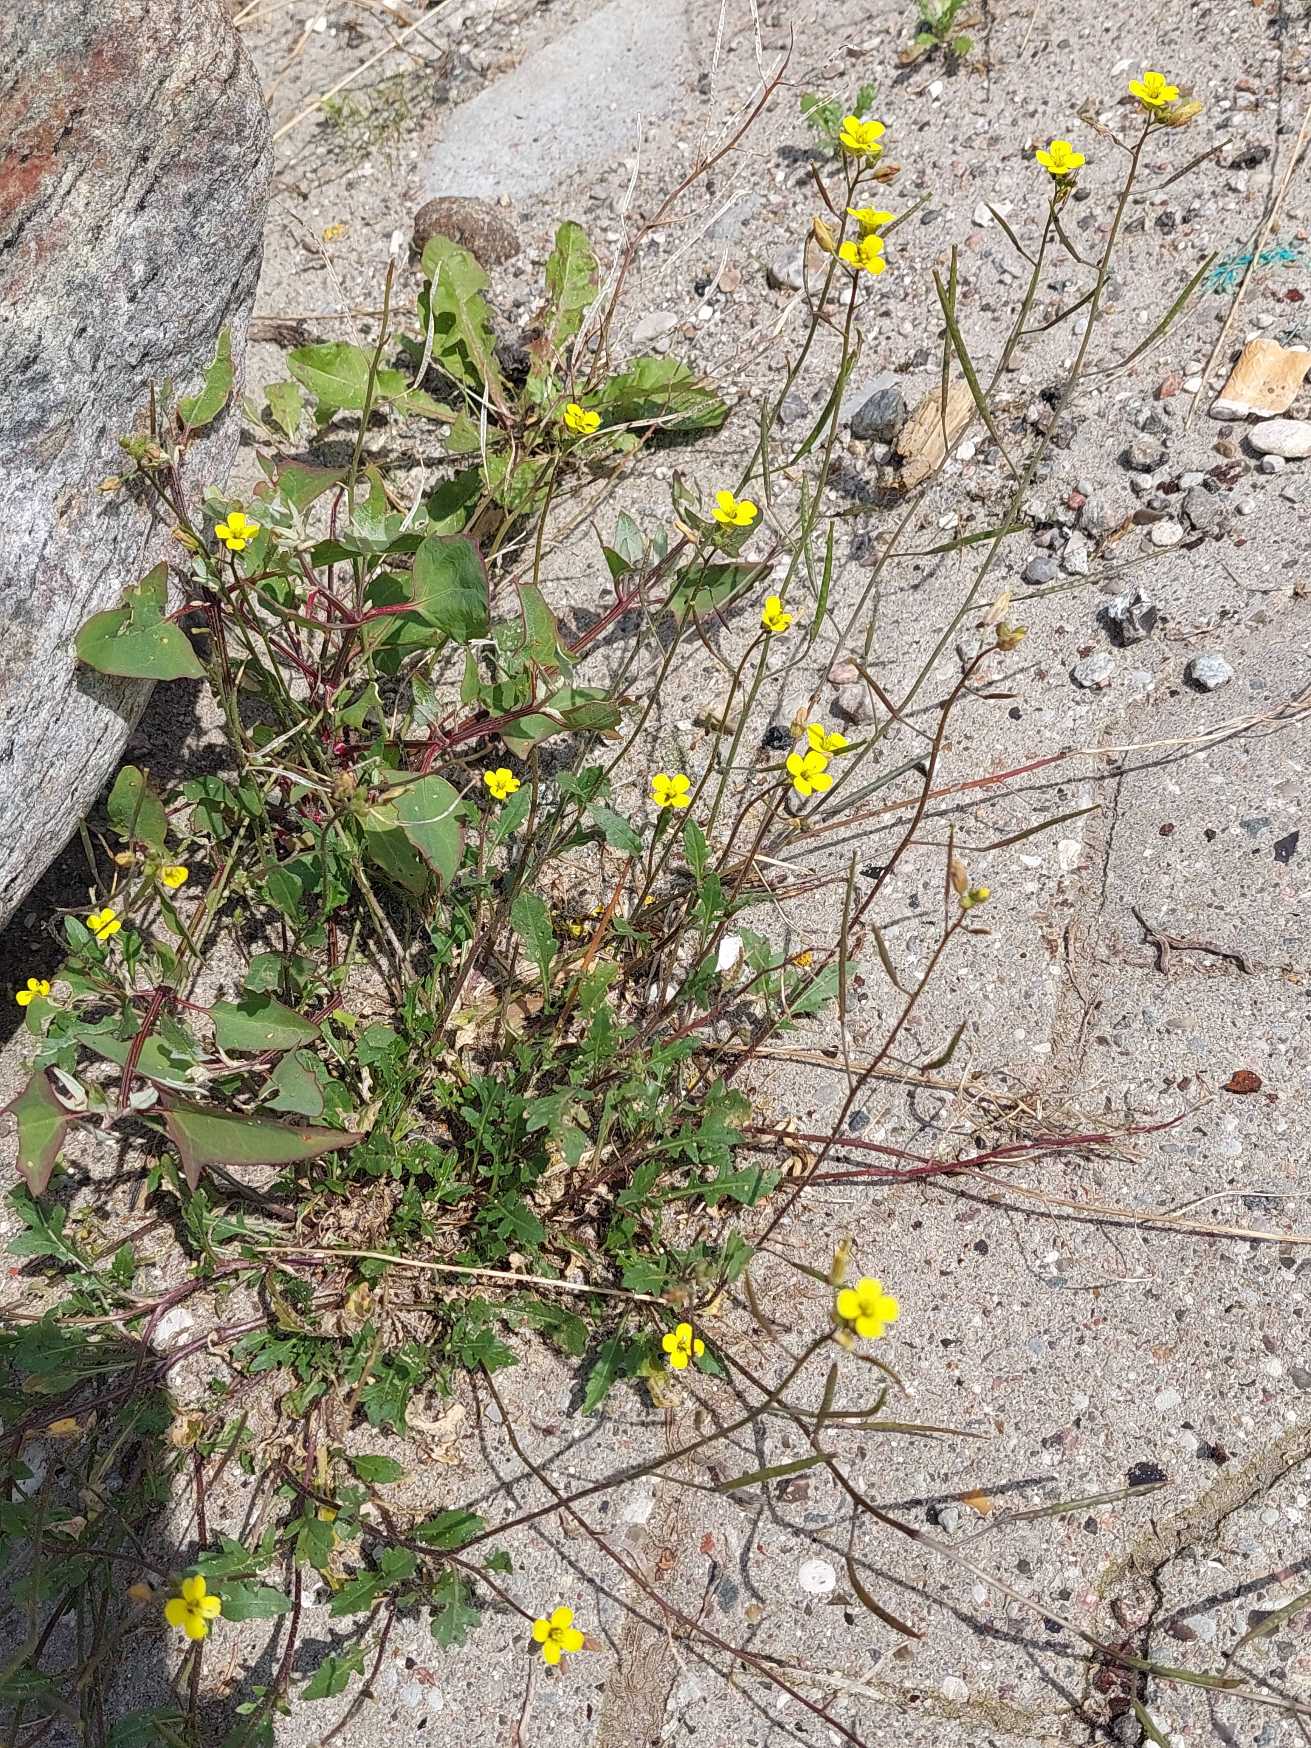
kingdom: Plantae
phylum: Tracheophyta
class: Magnoliopsida
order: Brassicales
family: Brassicaceae
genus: Diplotaxis
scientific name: Diplotaxis muralis
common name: Mursennep
